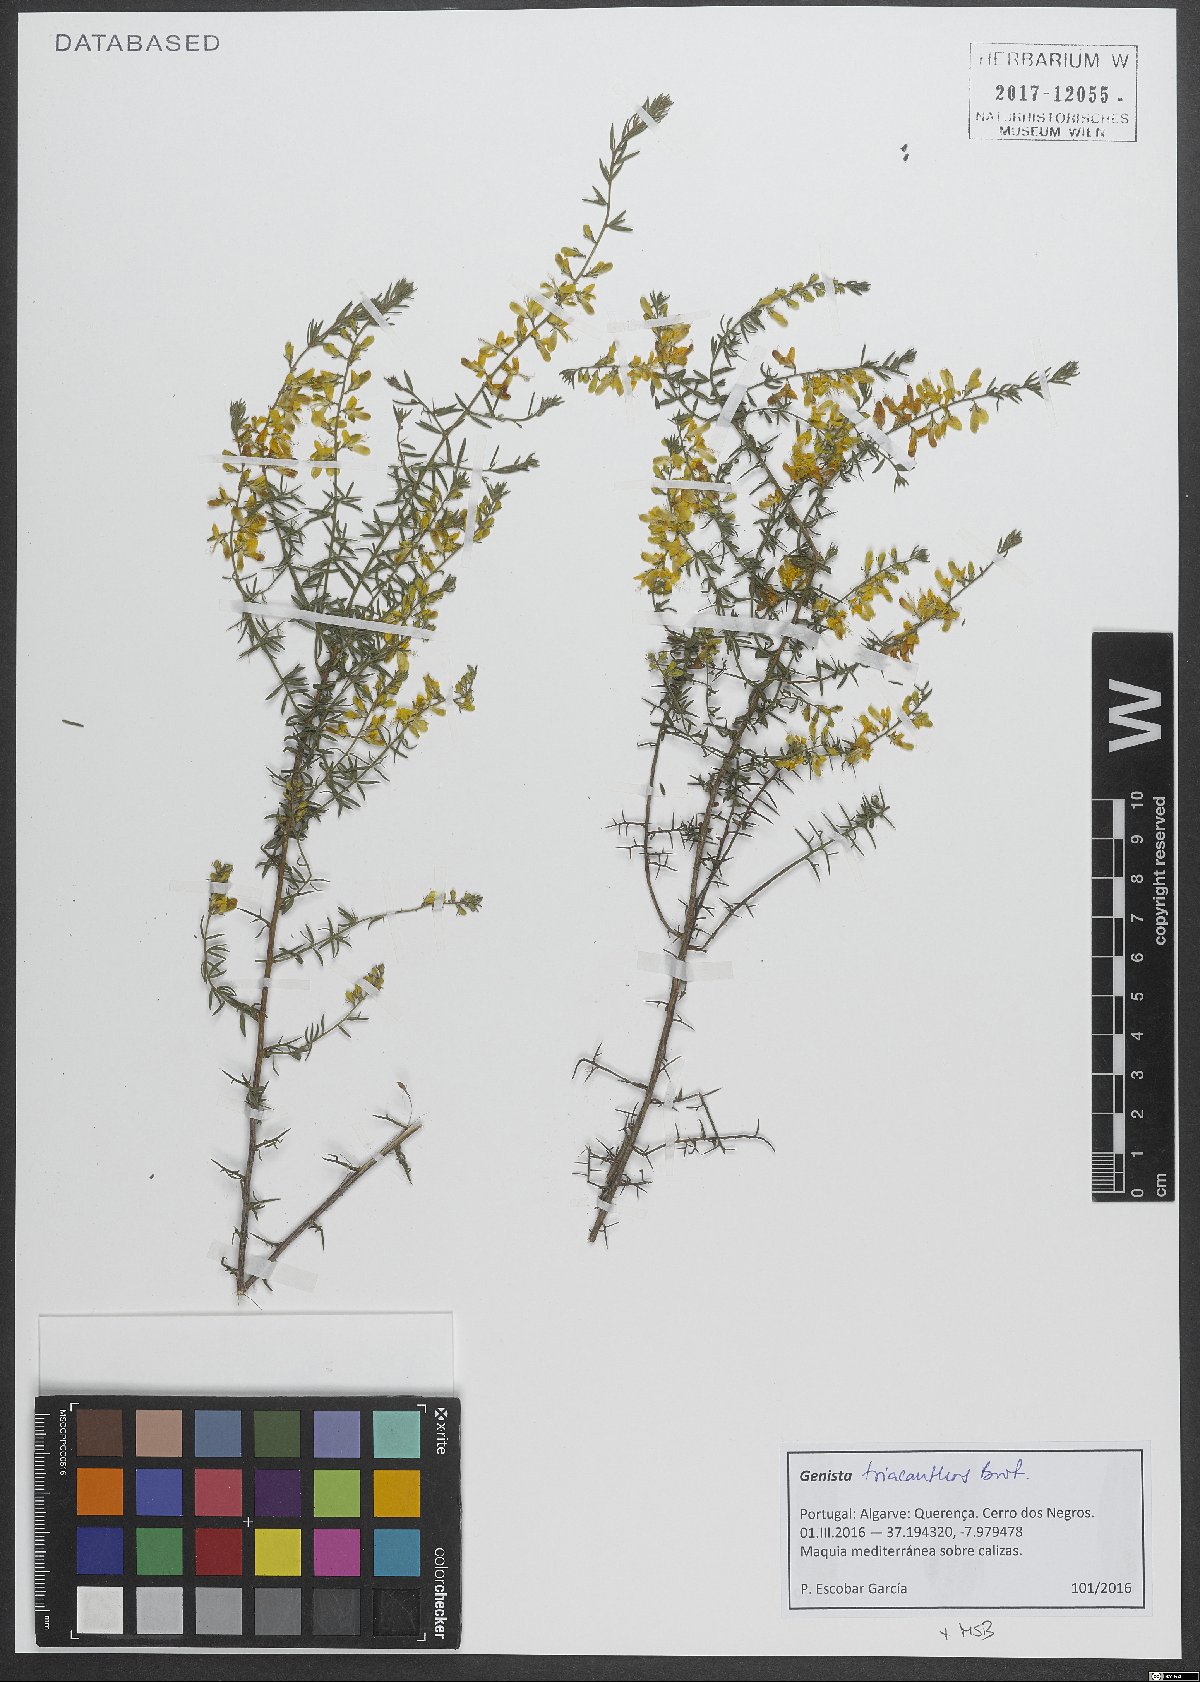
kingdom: Plantae
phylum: Tracheophyta
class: Magnoliopsida
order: Fabales
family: Fabaceae
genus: Genista
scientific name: Genista triacanthos
